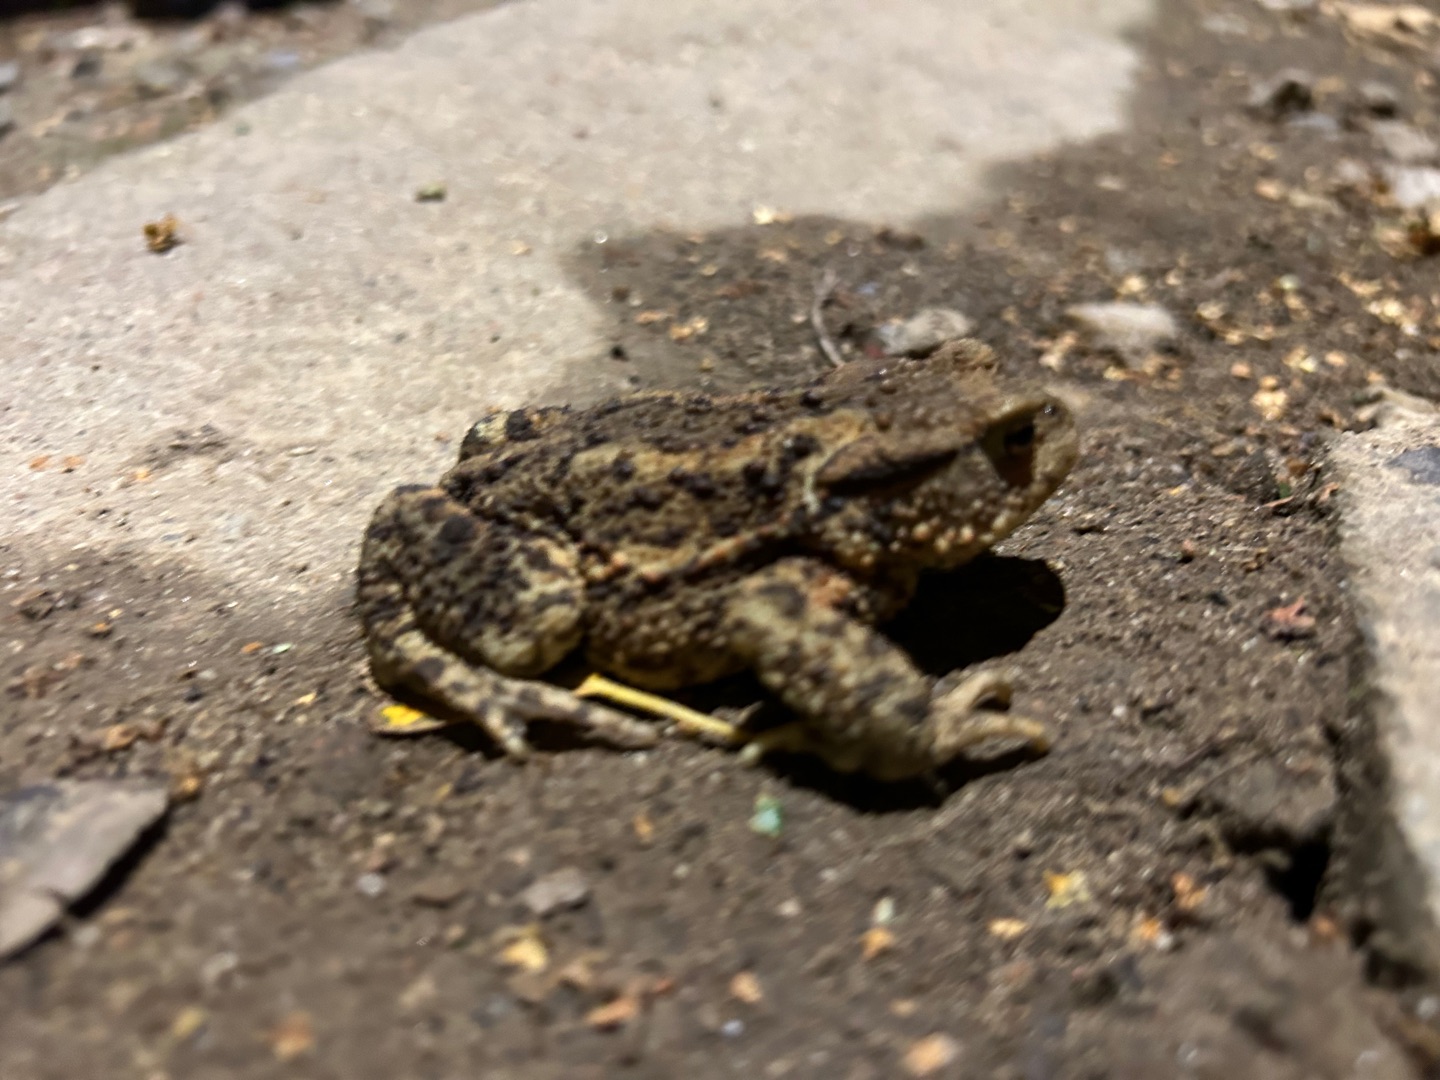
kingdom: Animalia
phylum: Chordata
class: Amphibia
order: Anura
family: Bufonidae
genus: Bufo
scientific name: Bufo bufo
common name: Skrubtudse
